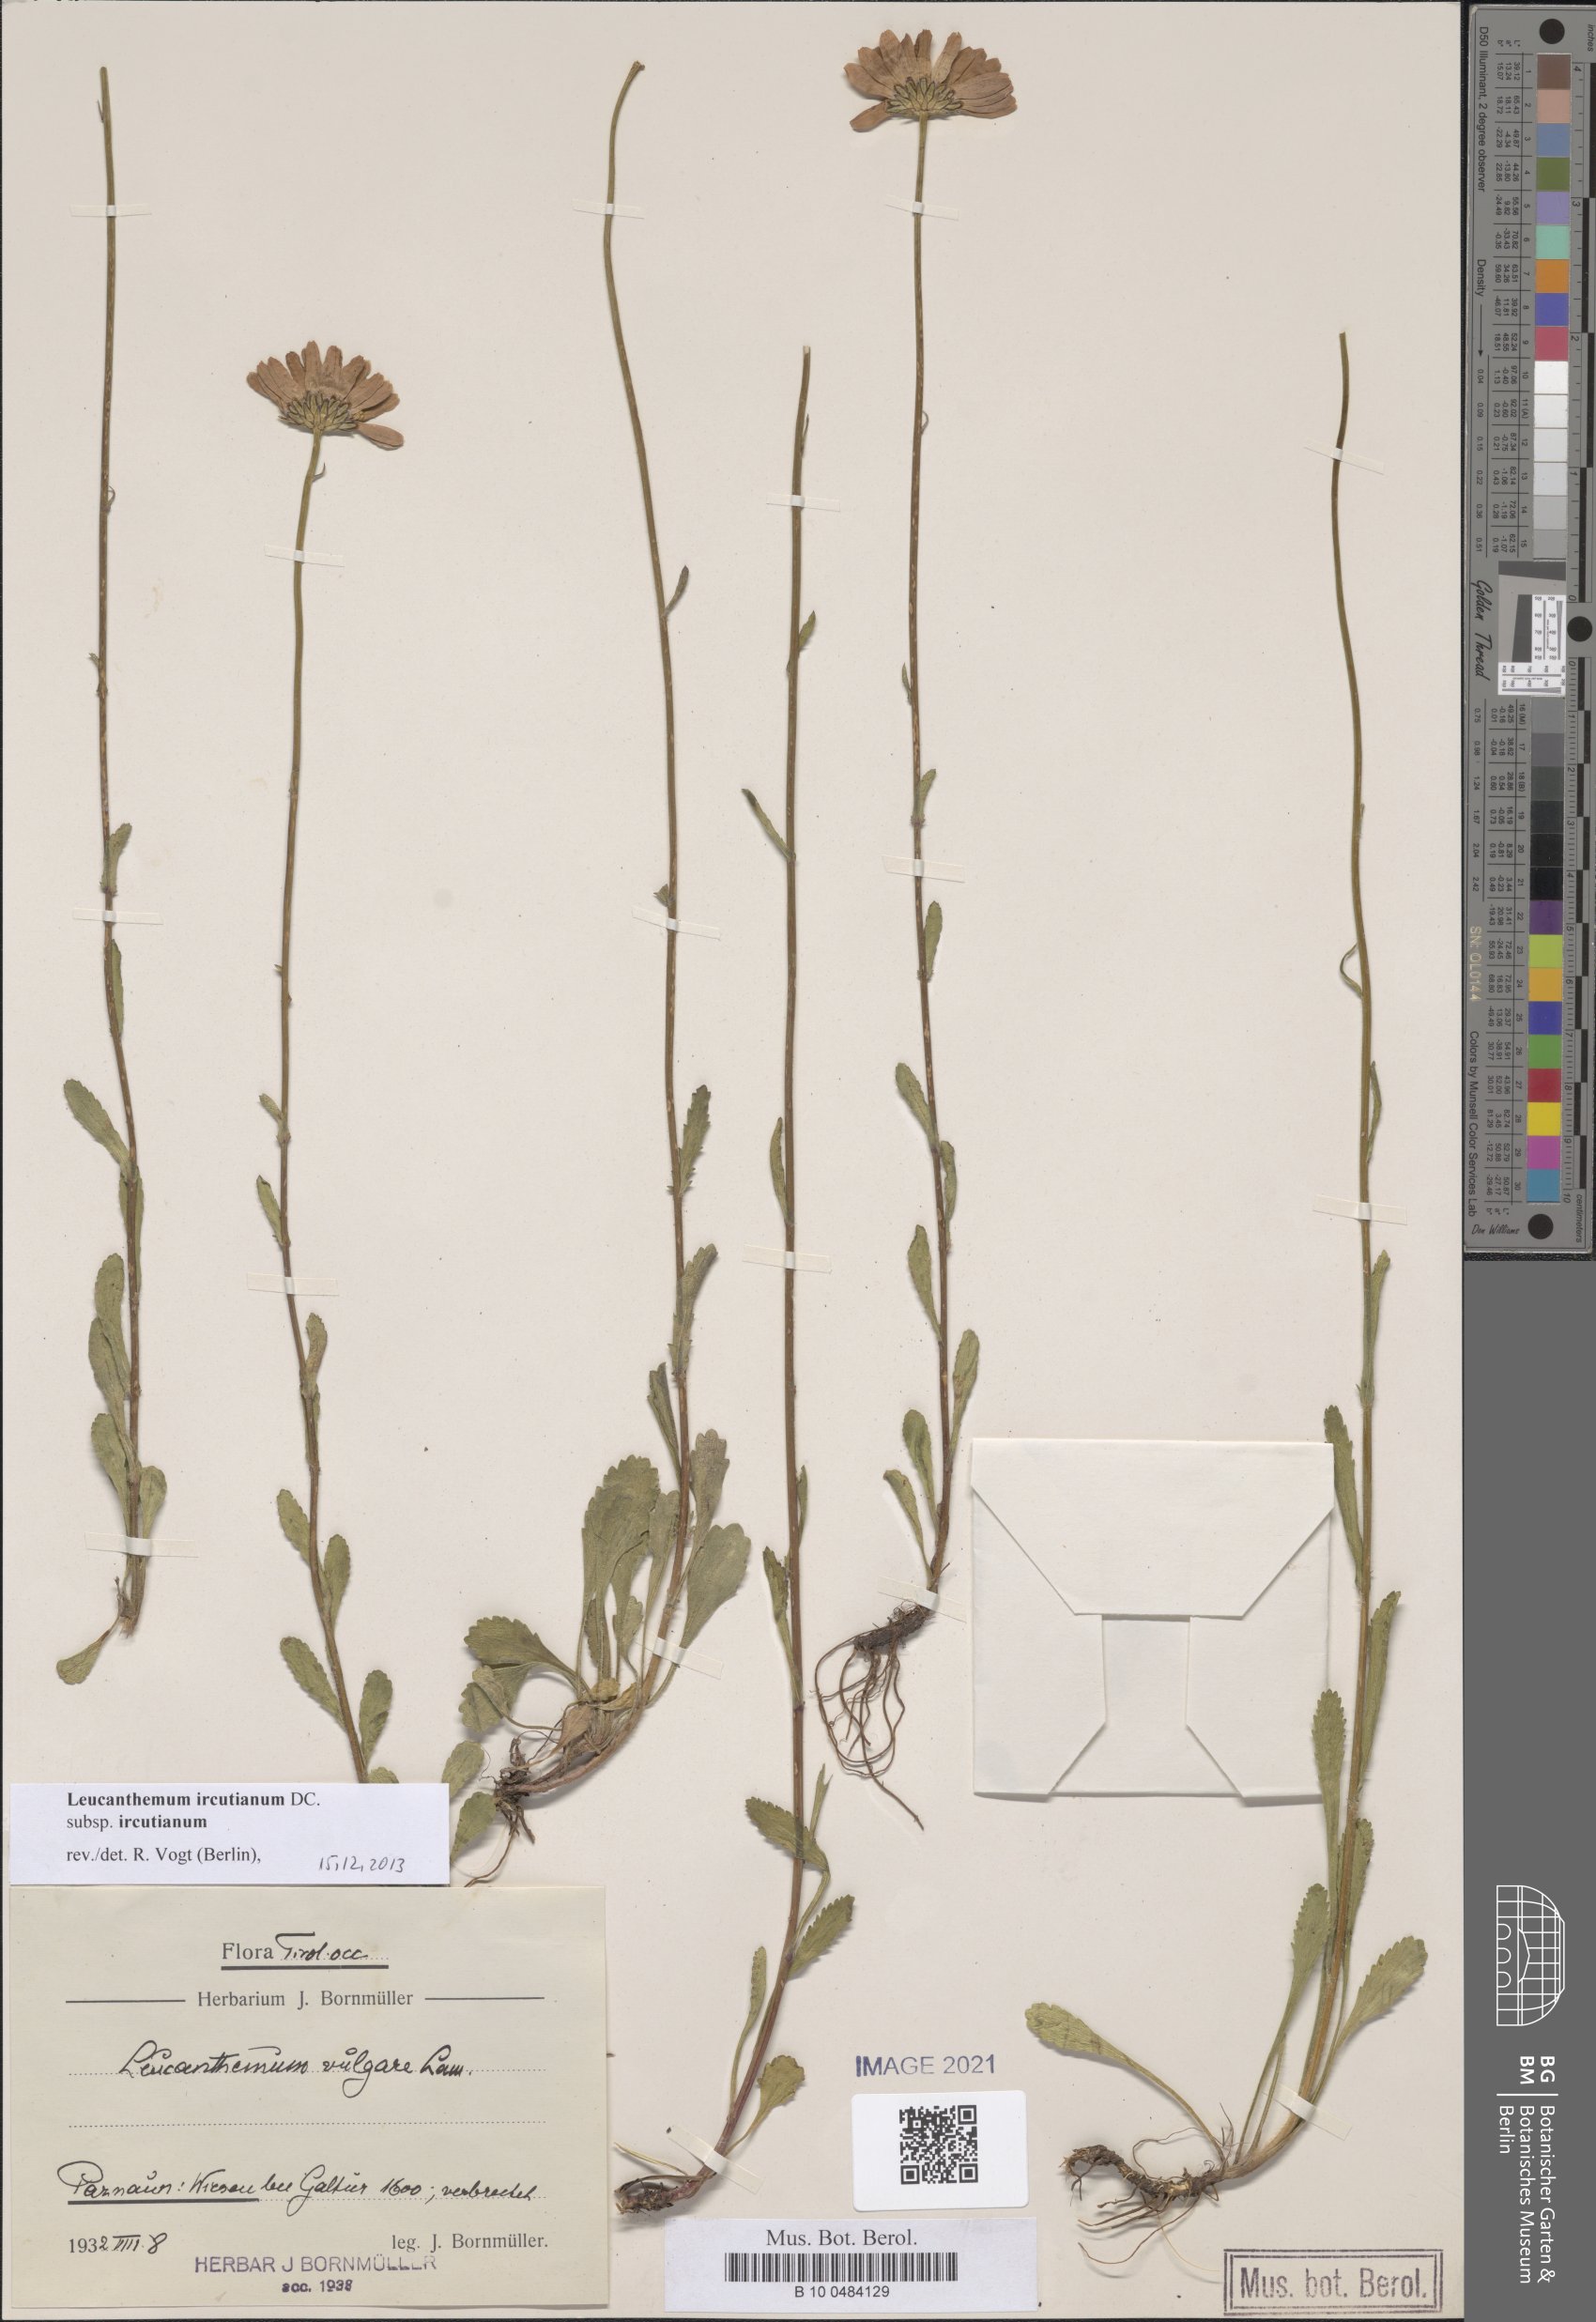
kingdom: Plantae
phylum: Tracheophyta
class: Magnoliopsida
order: Asterales
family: Asteraceae
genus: Leucanthemum
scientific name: Leucanthemum ircutianum
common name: Daisy
